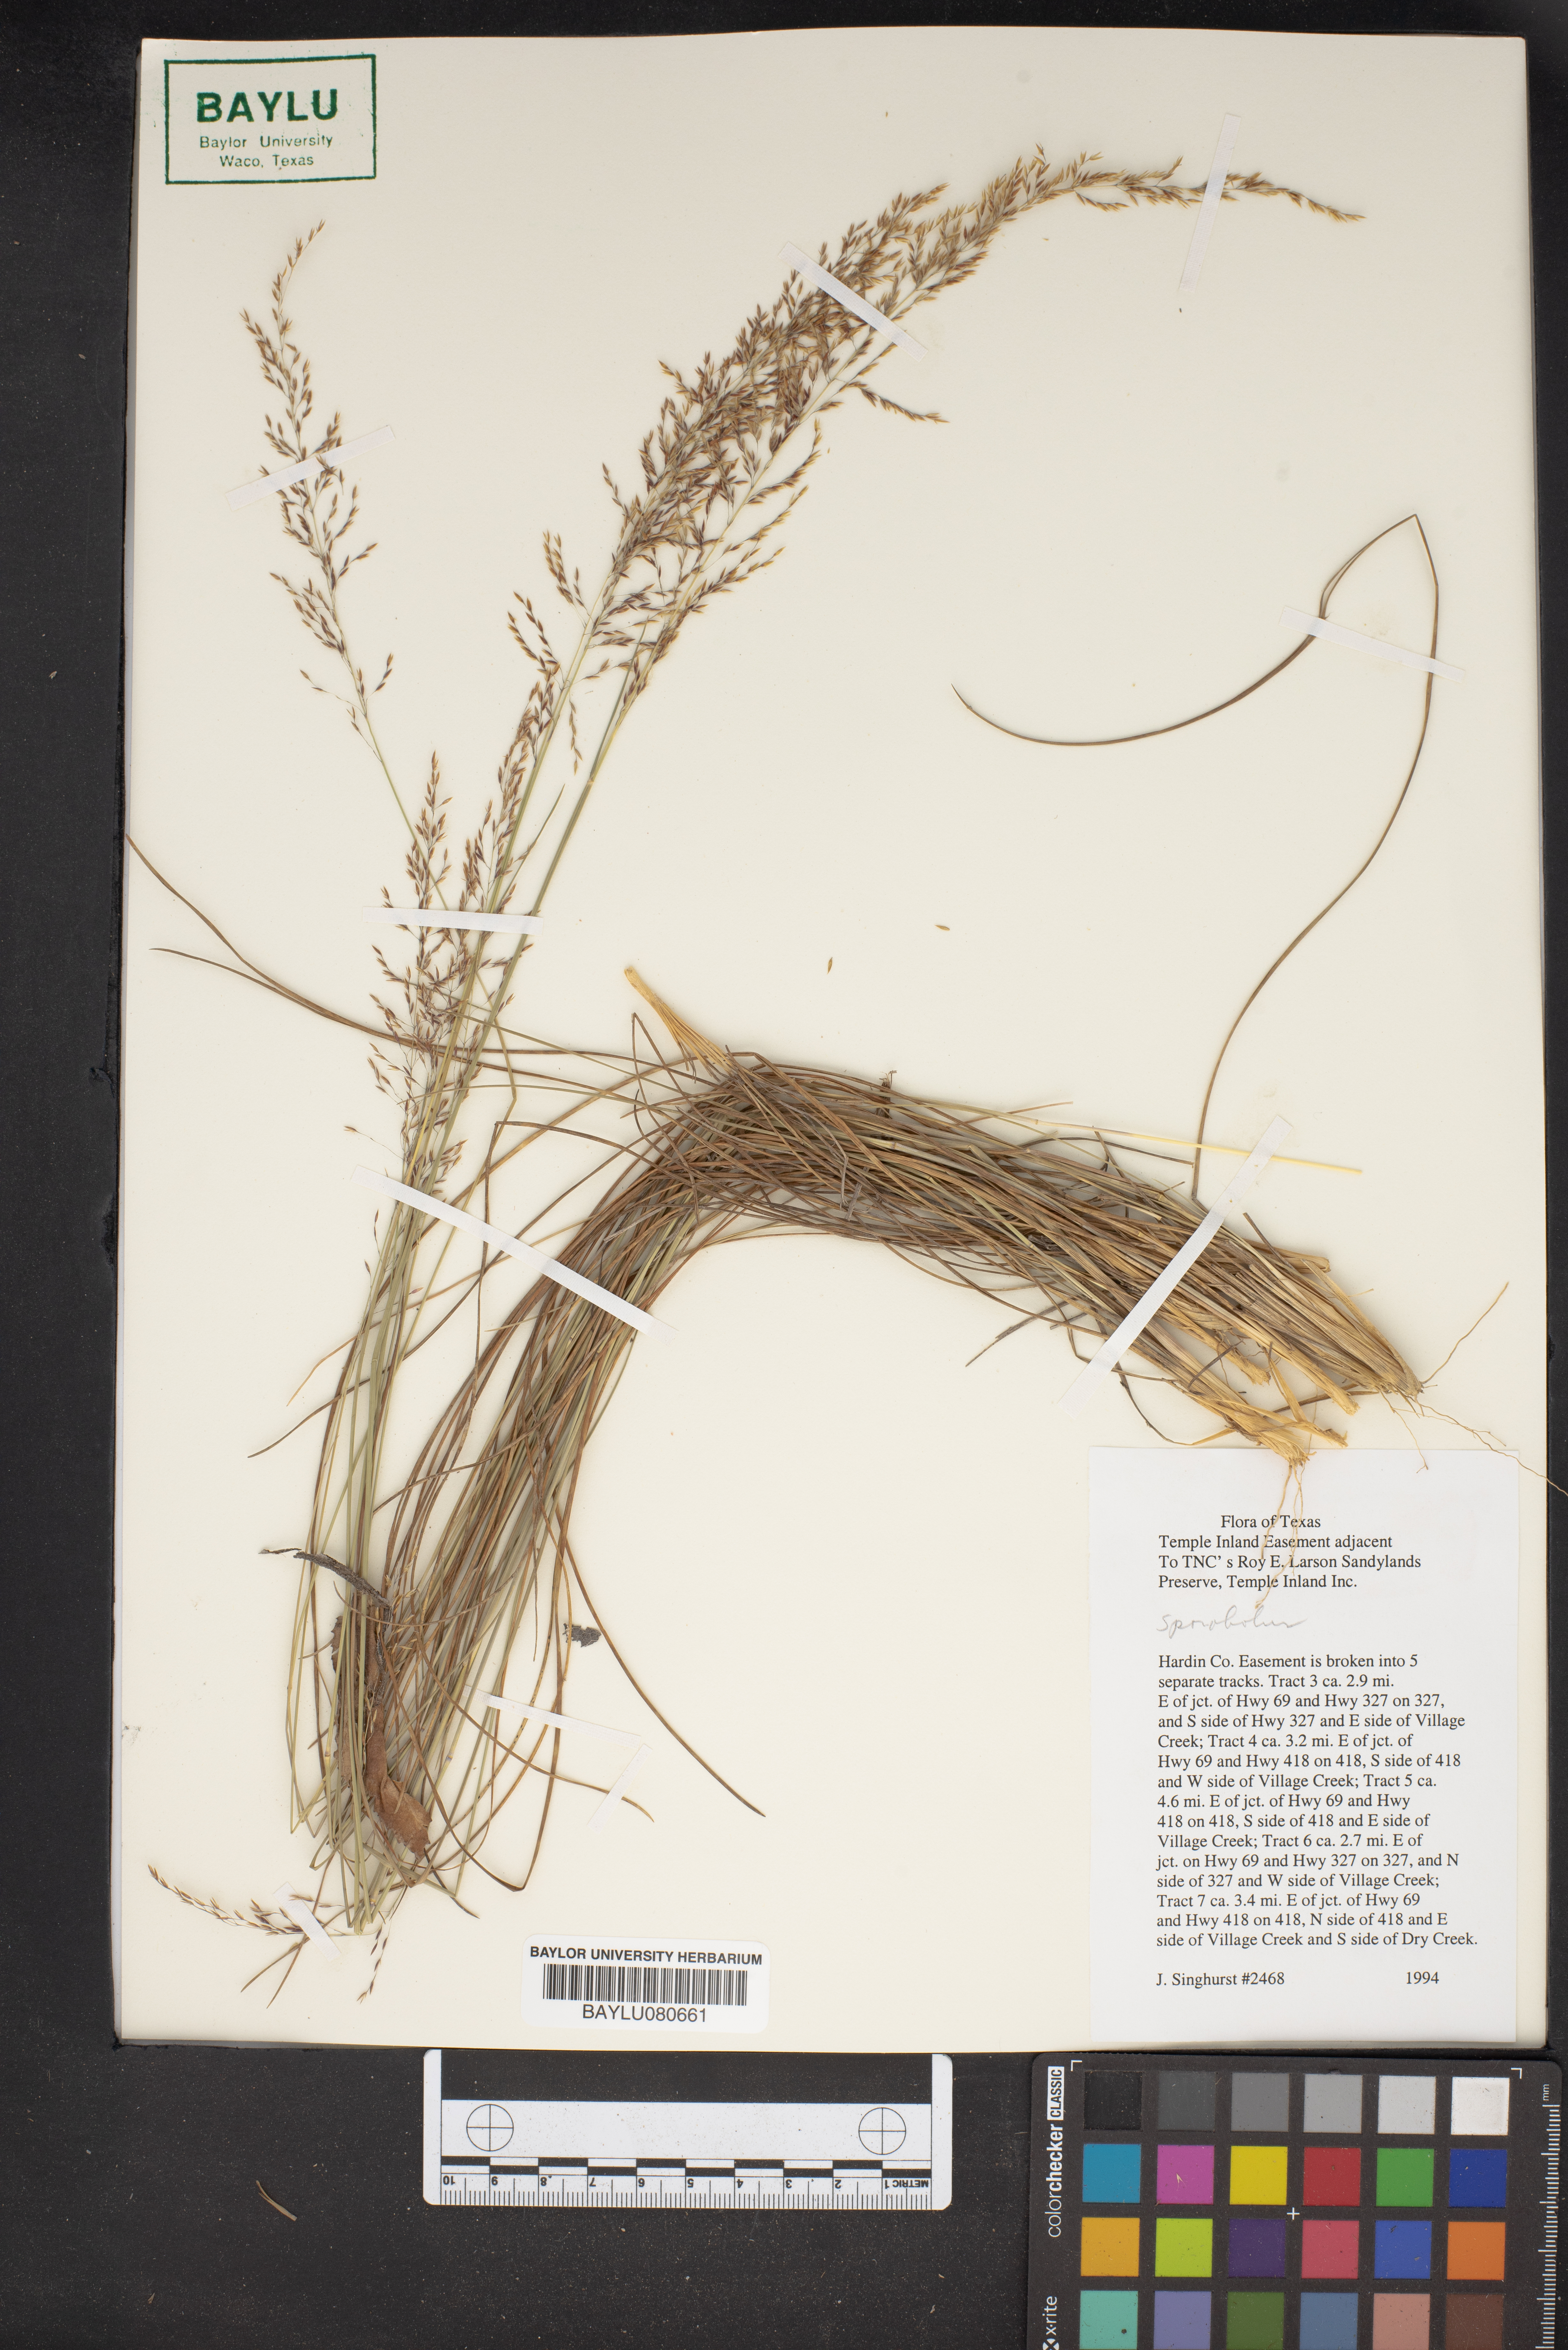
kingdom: Plantae
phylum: Tracheophyta
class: Liliopsida
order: Poales
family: Poaceae
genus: Sporobolus
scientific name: Sporobolus
